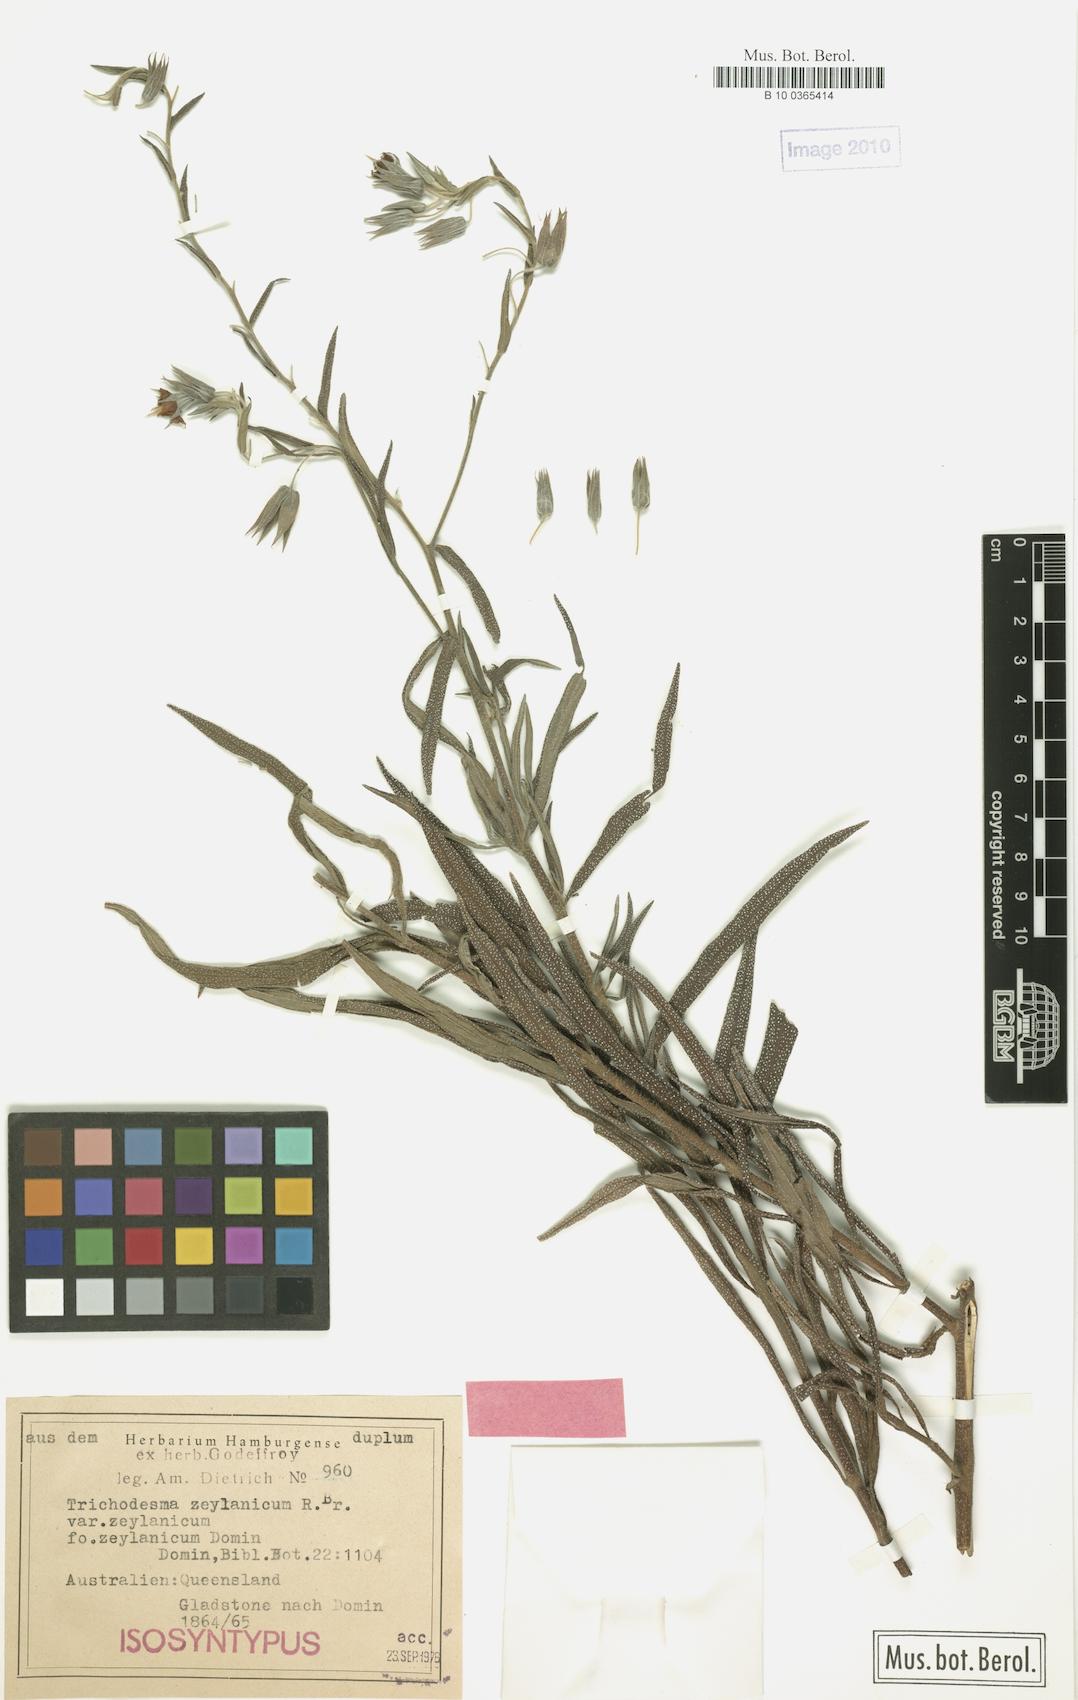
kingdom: Plantae
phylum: Tracheophyta
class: Magnoliopsida
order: Boraginales
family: Boraginaceae
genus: Trichodesma
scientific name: Trichodesma zeylanicum
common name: Camelbush
